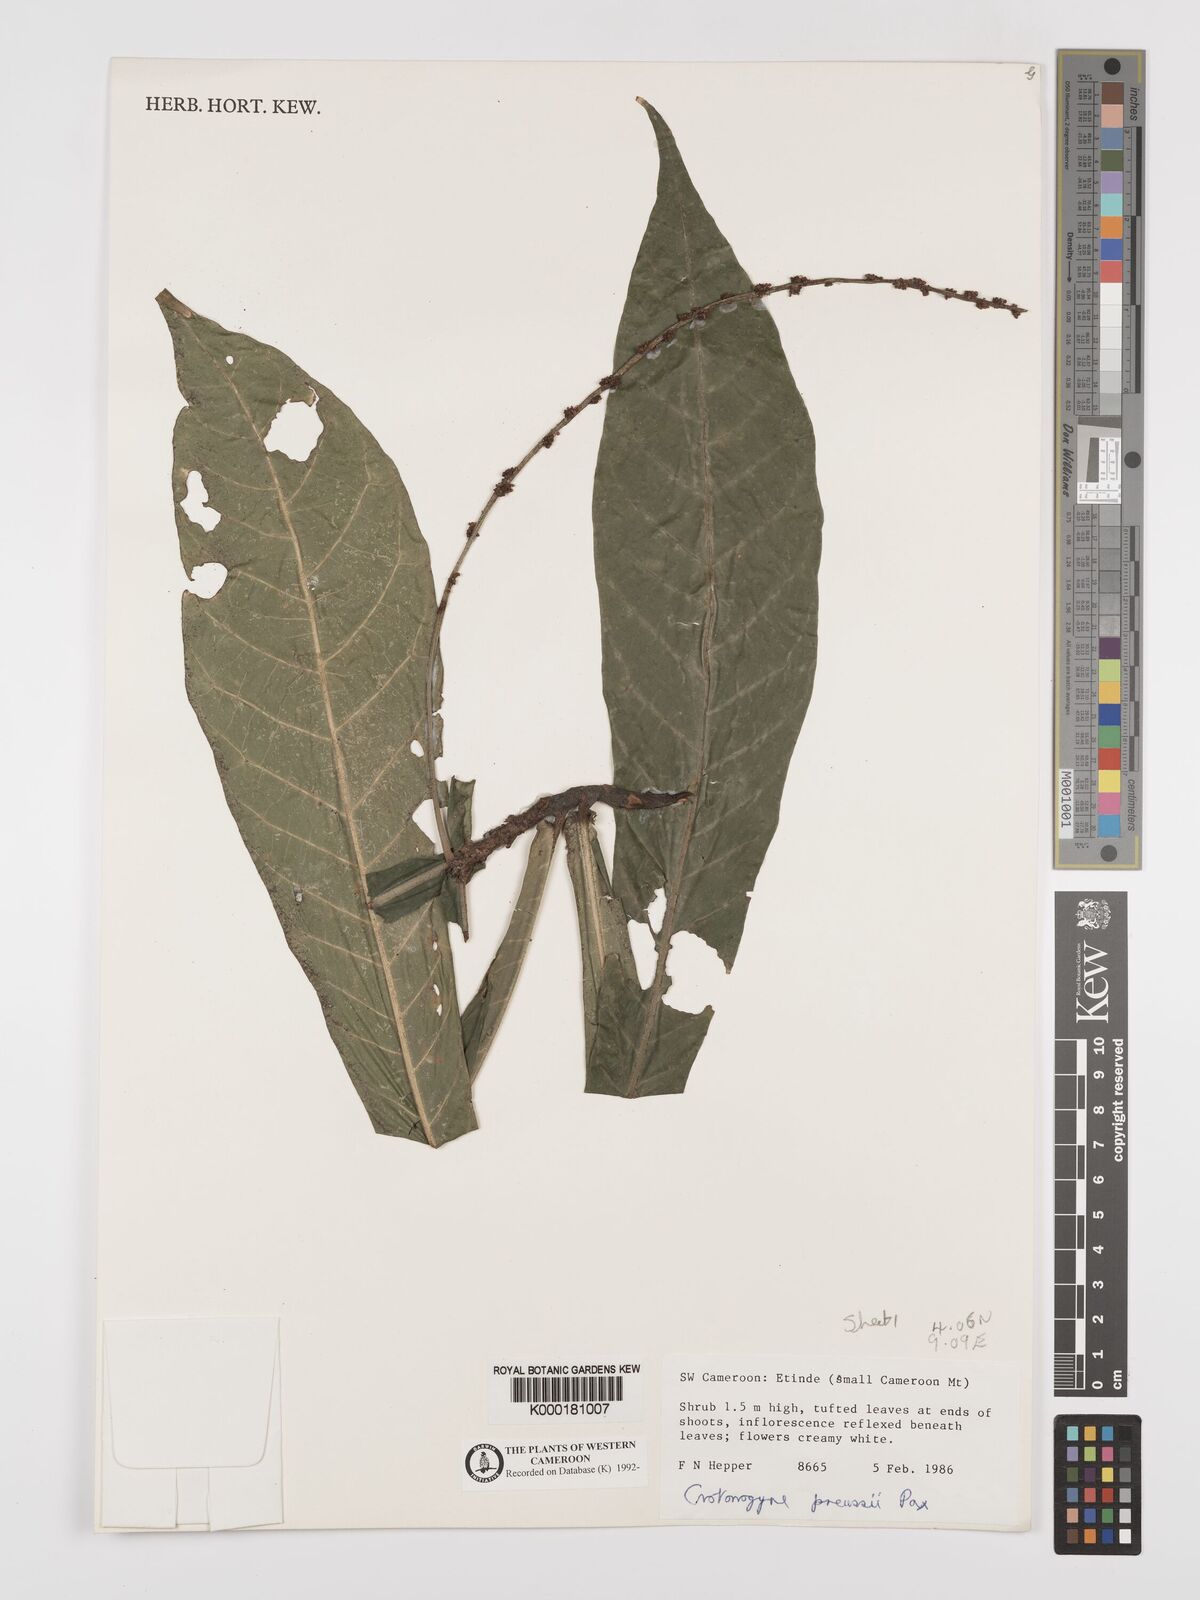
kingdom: Plantae
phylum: Tracheophyta
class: Magnoliopsida
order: Malpighiales
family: Euphorbiaceae
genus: Crotonogyne
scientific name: Crotonogyne preussii
